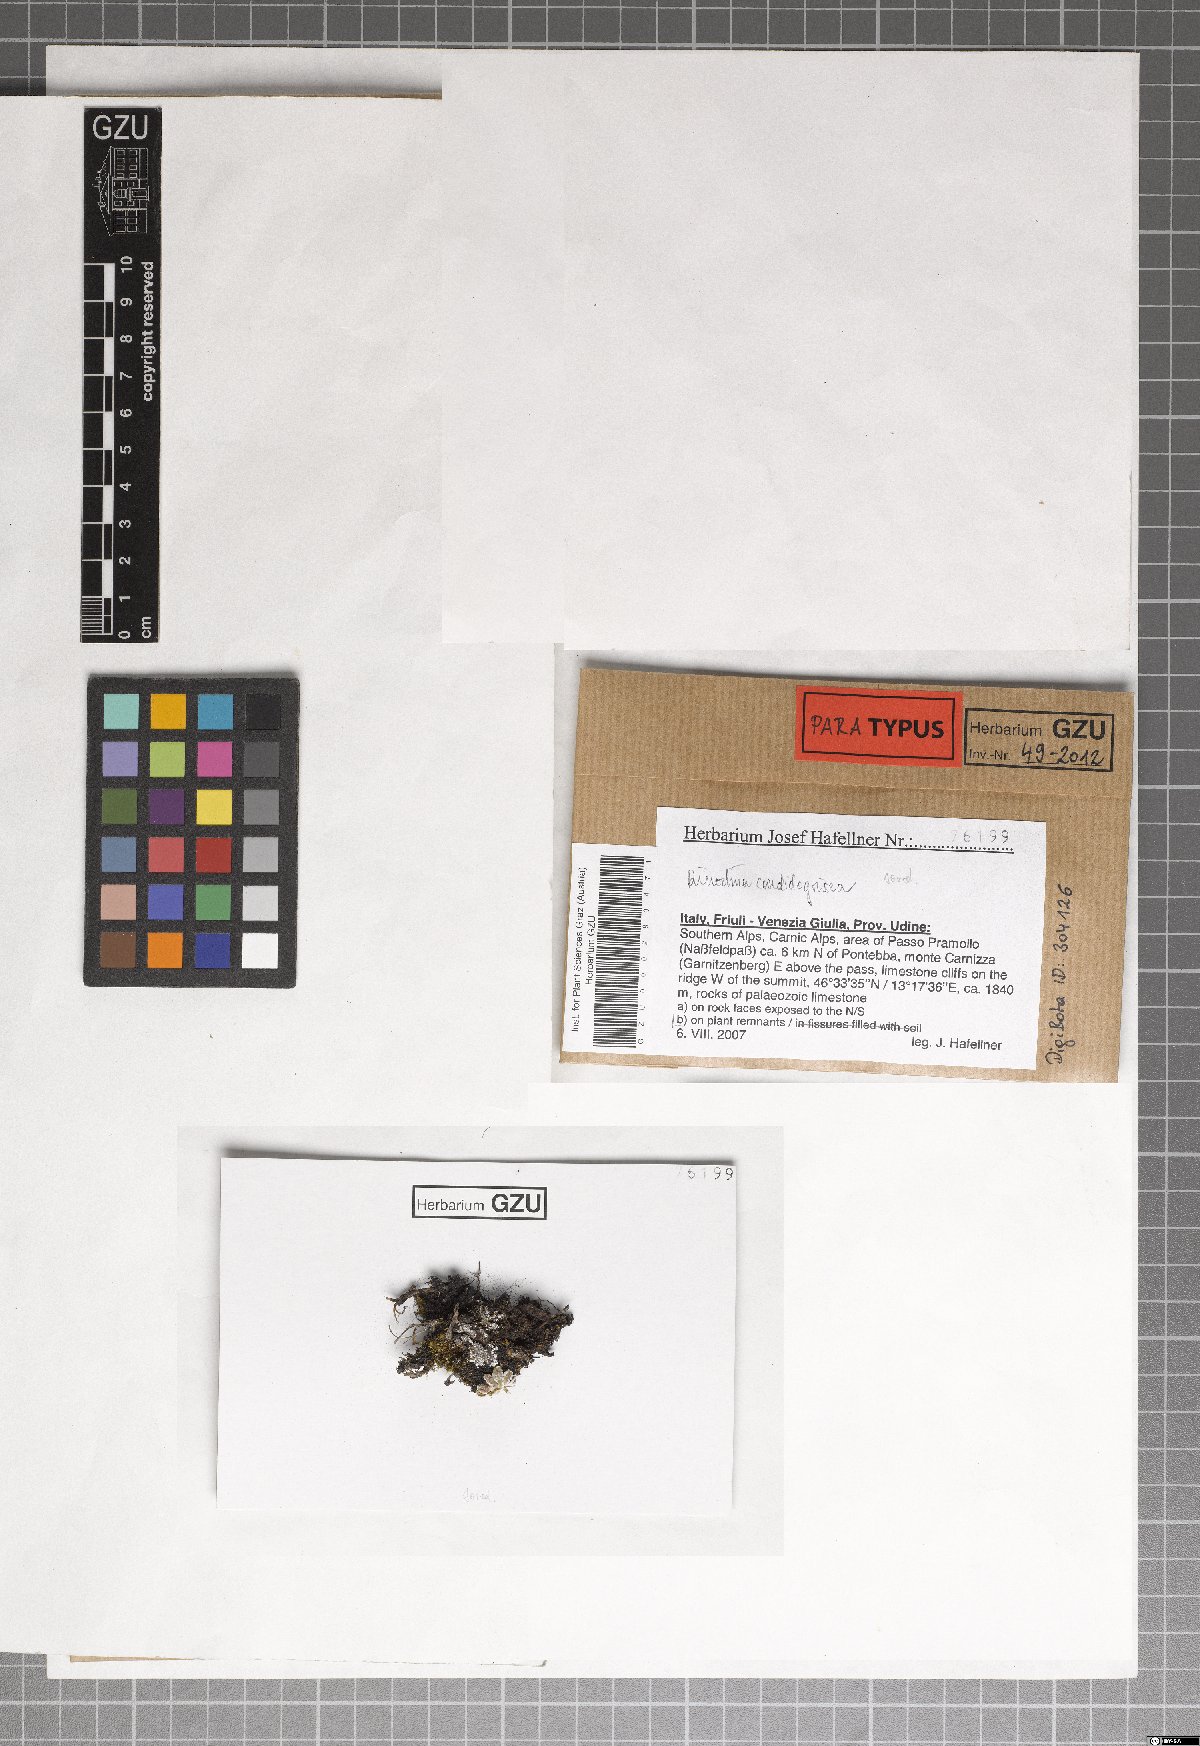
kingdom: Fungi
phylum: Ascomycota
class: Lecanoromycetes
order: Caliciales
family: Physciaceae
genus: Kudratovia
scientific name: Kudratovia candidogrisea
